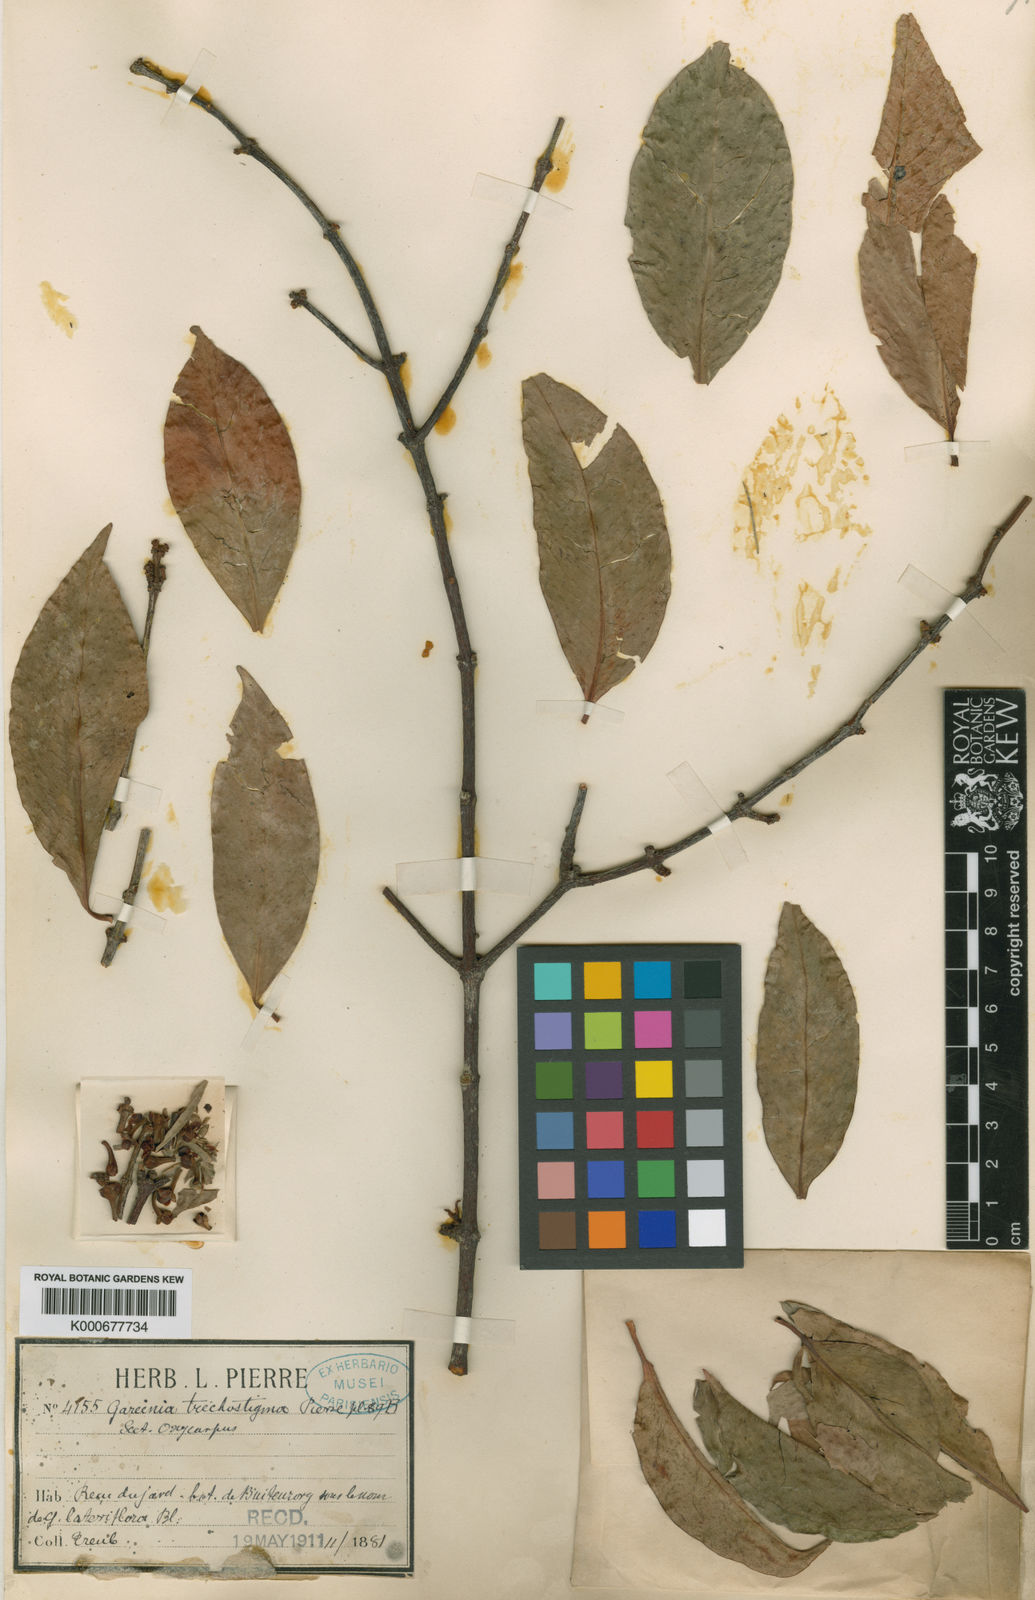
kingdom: Plantae
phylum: Tracheophyta
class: Magnoliopsida
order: Malpighiales
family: Clusiaceae
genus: Garcinia
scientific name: Garcinia dioica
